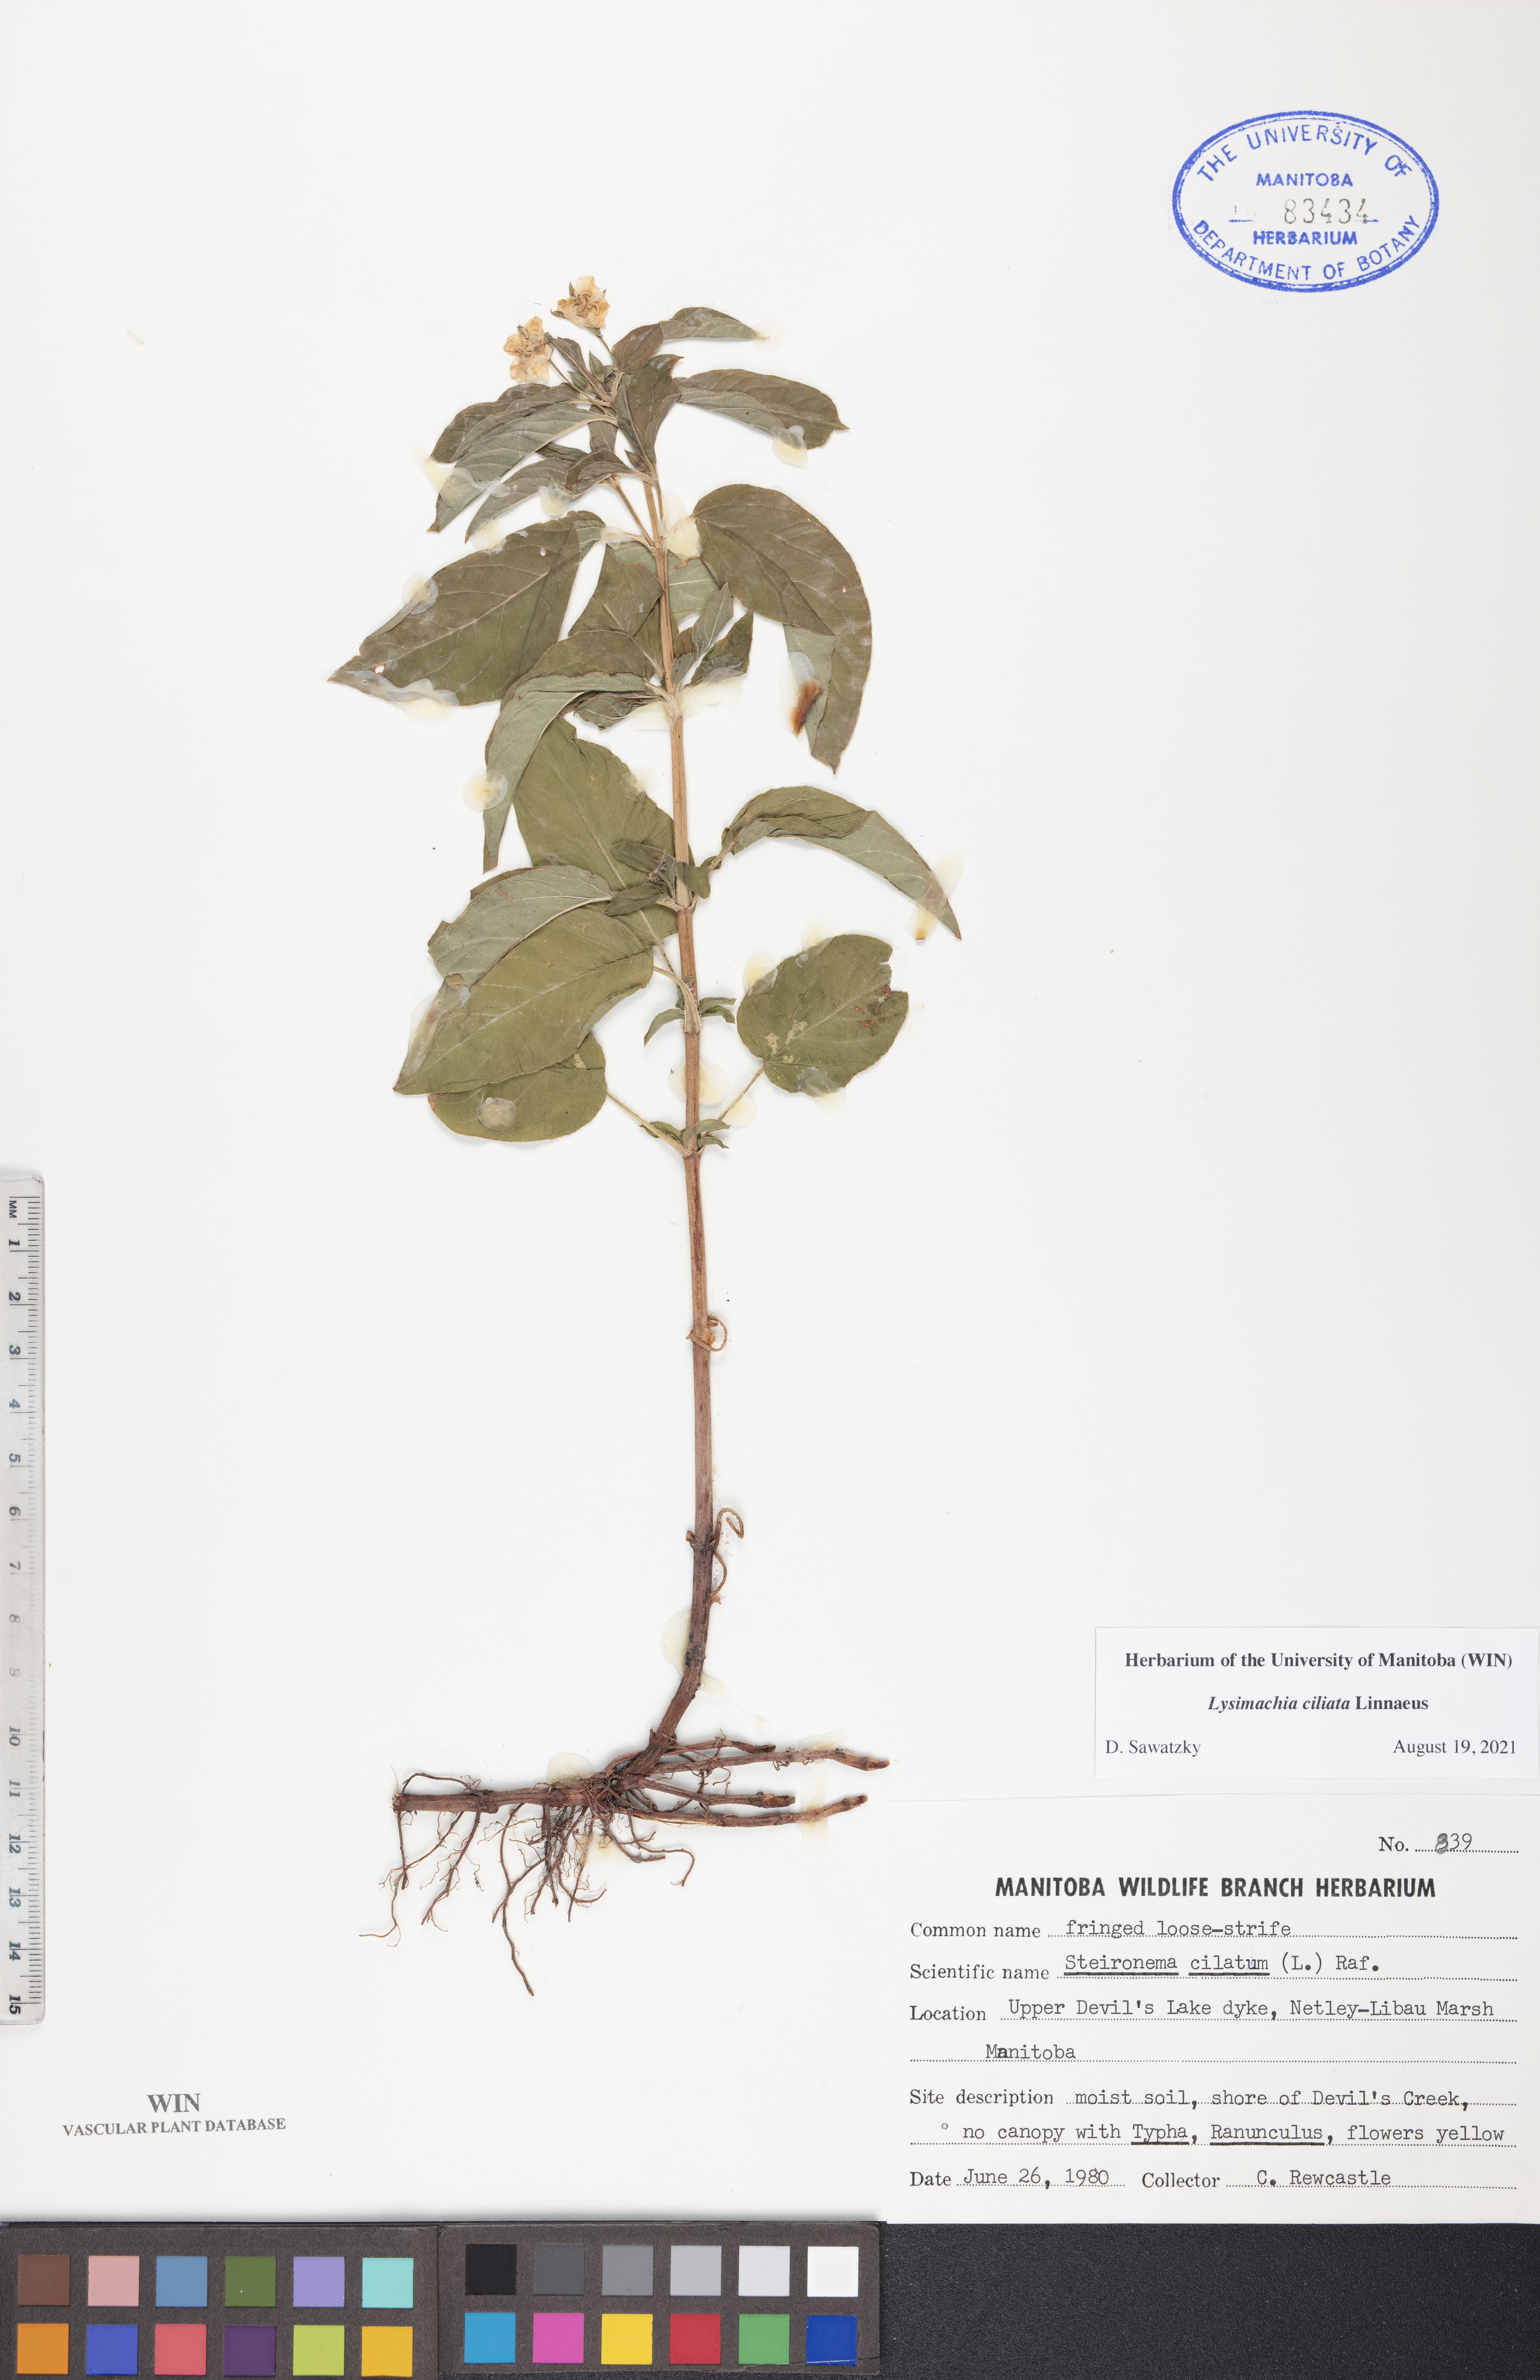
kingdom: Plantae
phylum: Tracheophyta
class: Magnoliopsida
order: Ericales
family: Primulaceae
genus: Lysimachia
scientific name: Lysimachia ciliata
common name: Fringed loosestrife
